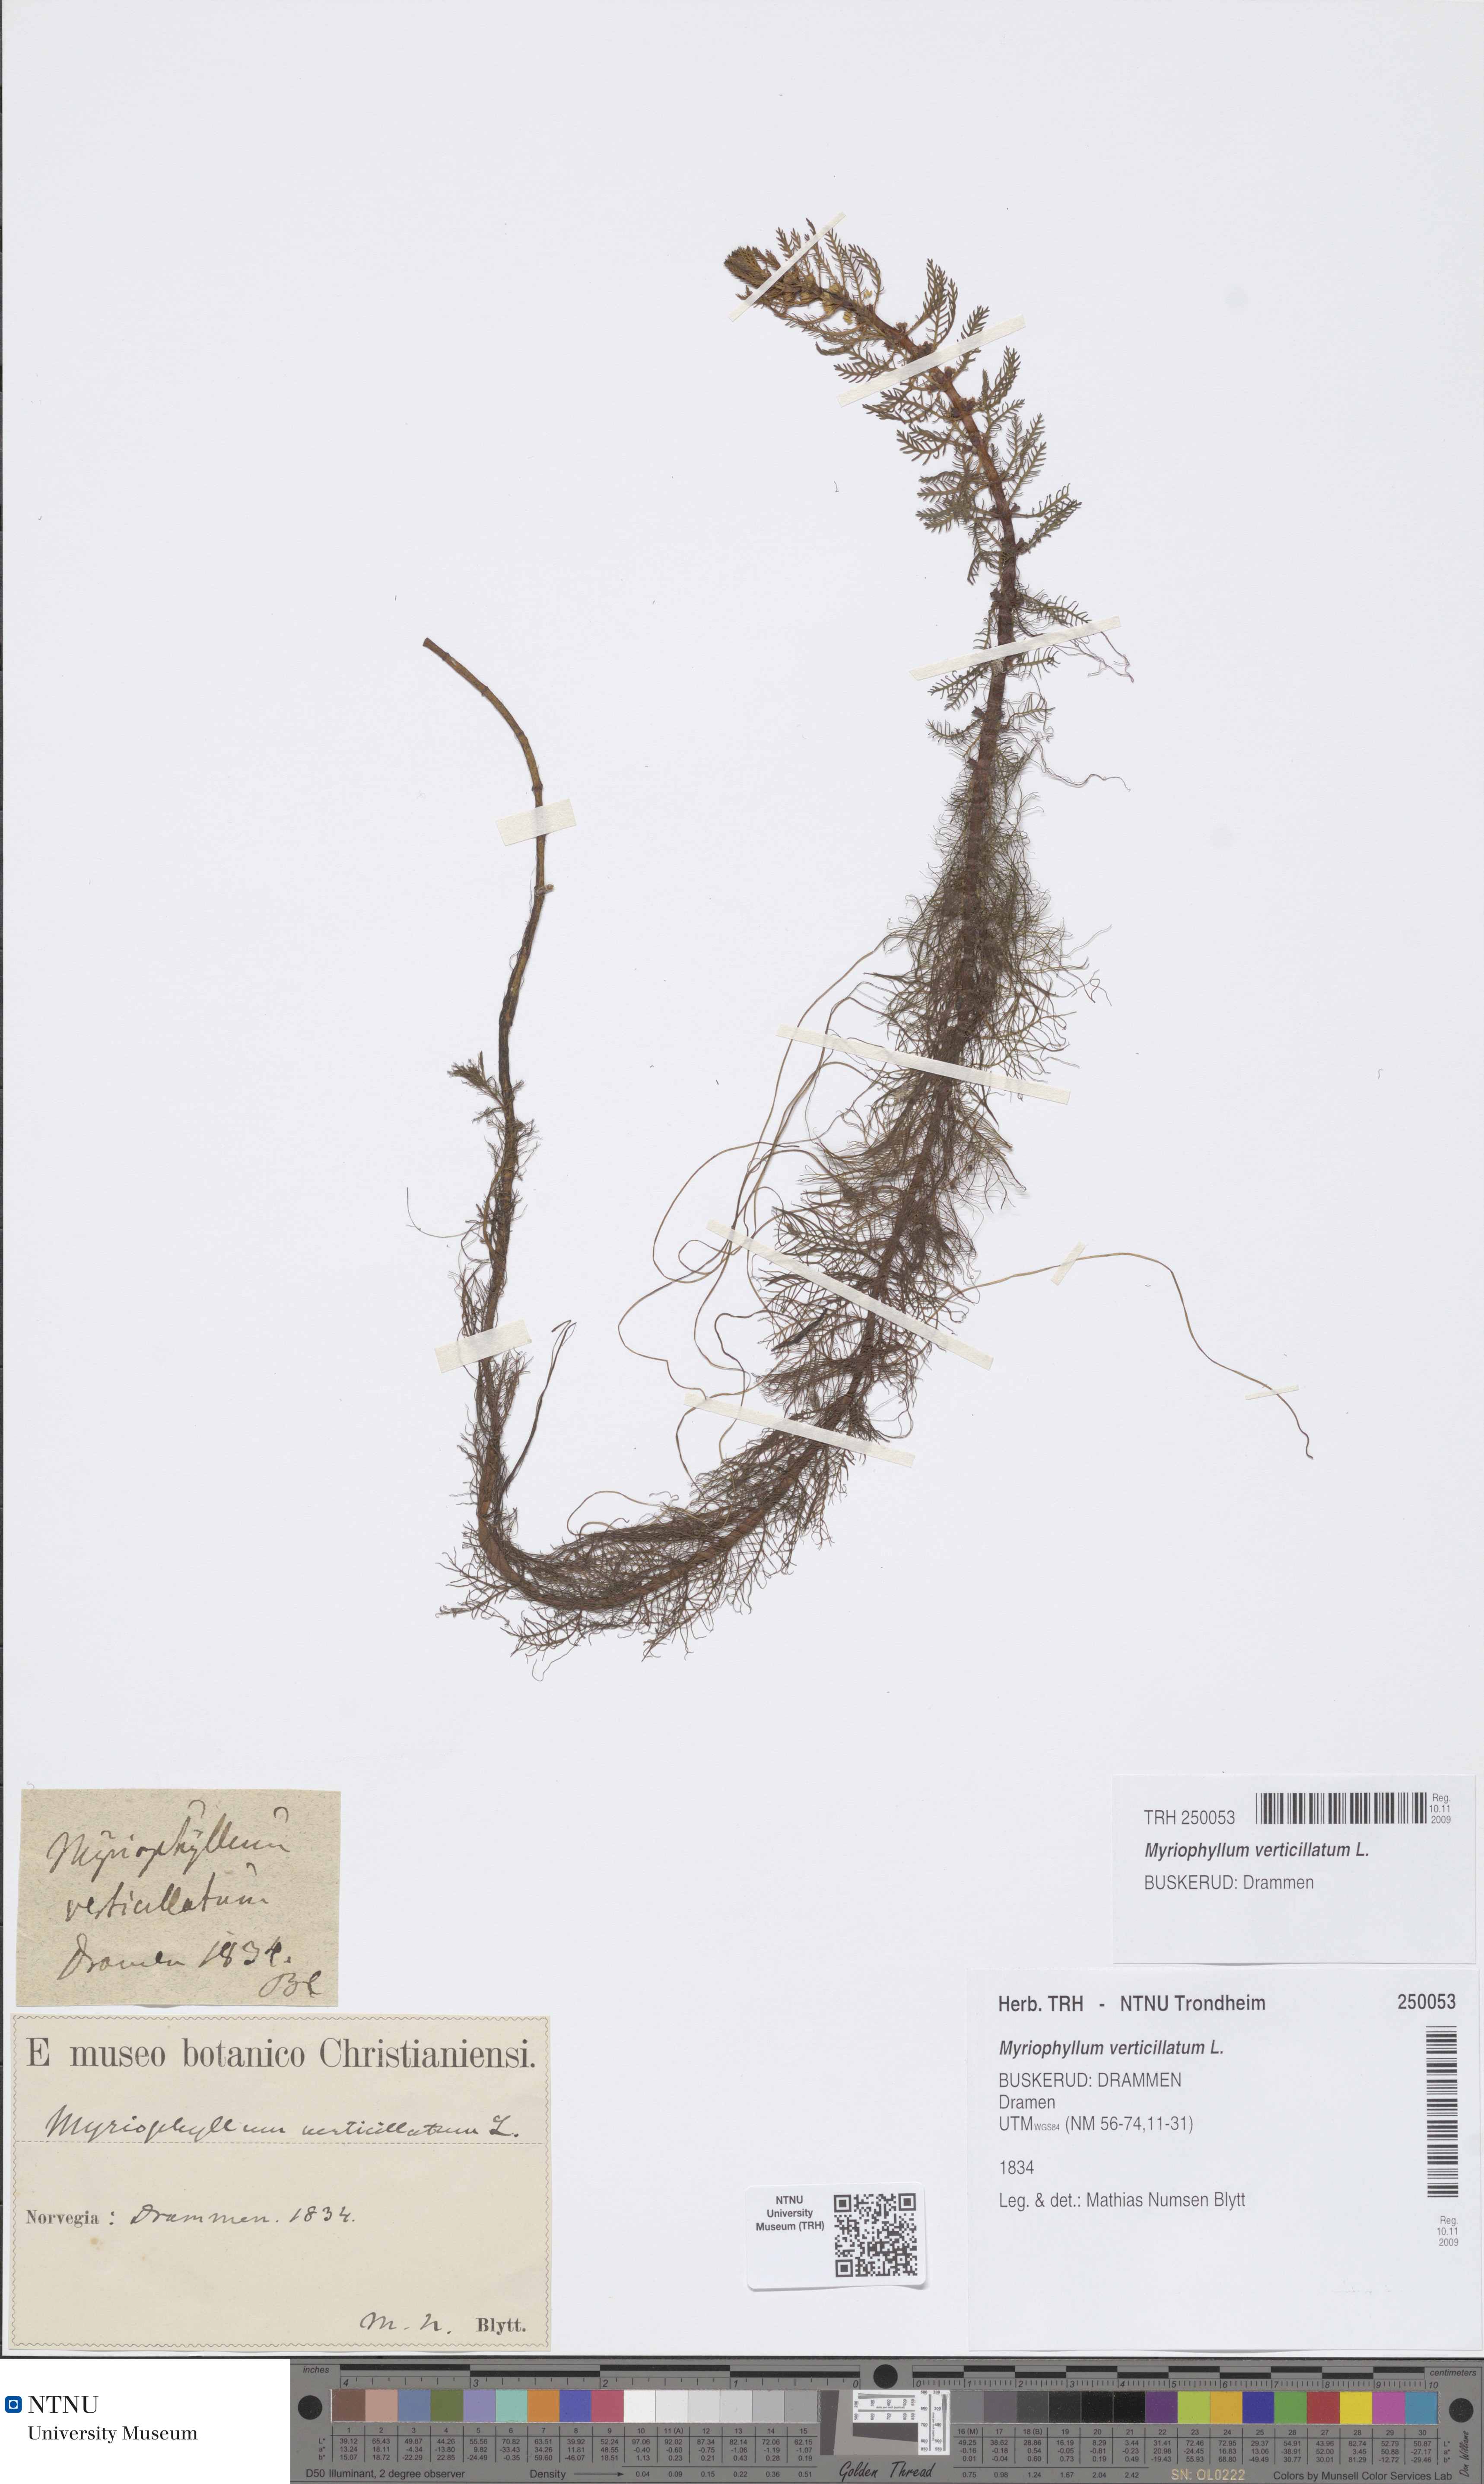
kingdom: Plantae
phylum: Tracheophyta
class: Magnoliopsida
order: Saxifragales
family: Haloragaceae
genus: Myriophyllum
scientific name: Myriophyllum verticillatum
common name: Whorled water-milfoil
